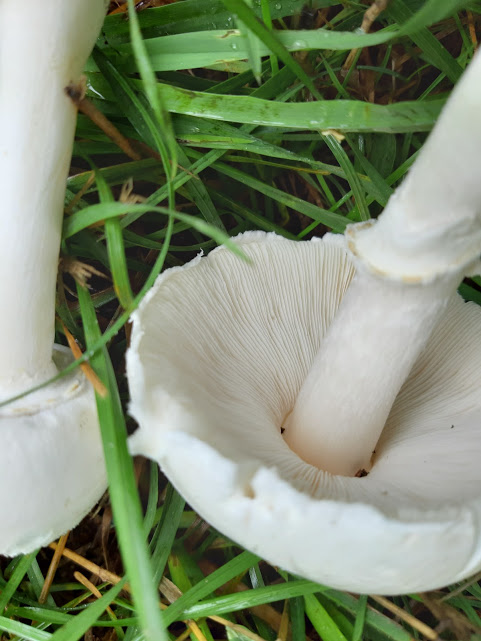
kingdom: Fungi
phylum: Basidiomycota
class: Agaricomycetes
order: Agaricales
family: Agaricaceae
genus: Leucoagaricus
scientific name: Leucoagaricus leucothites
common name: rosabladet silkehat
